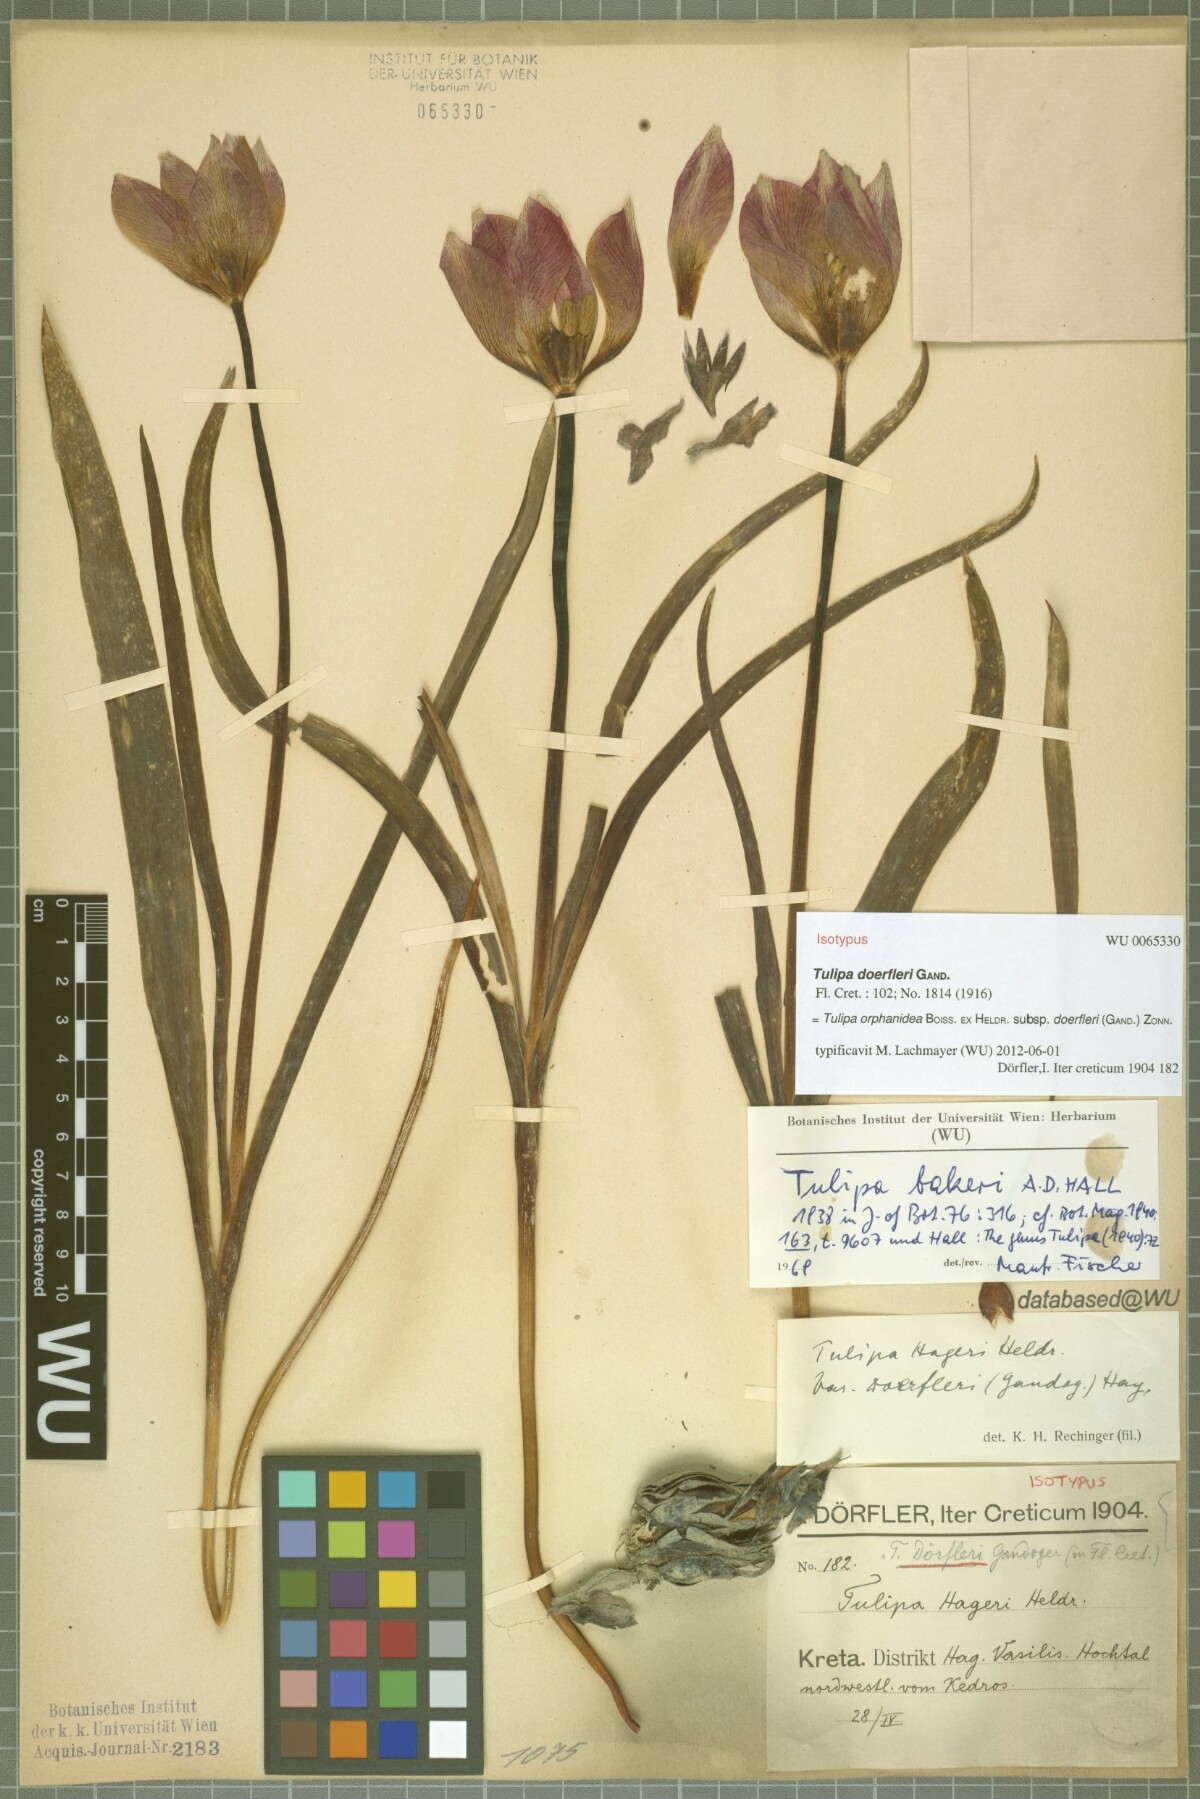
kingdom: Plantae
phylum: Tracheophyta
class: Liliopsida
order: Liliales
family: Liliaceae
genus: Tulipa
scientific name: Tulipa orphanidea
